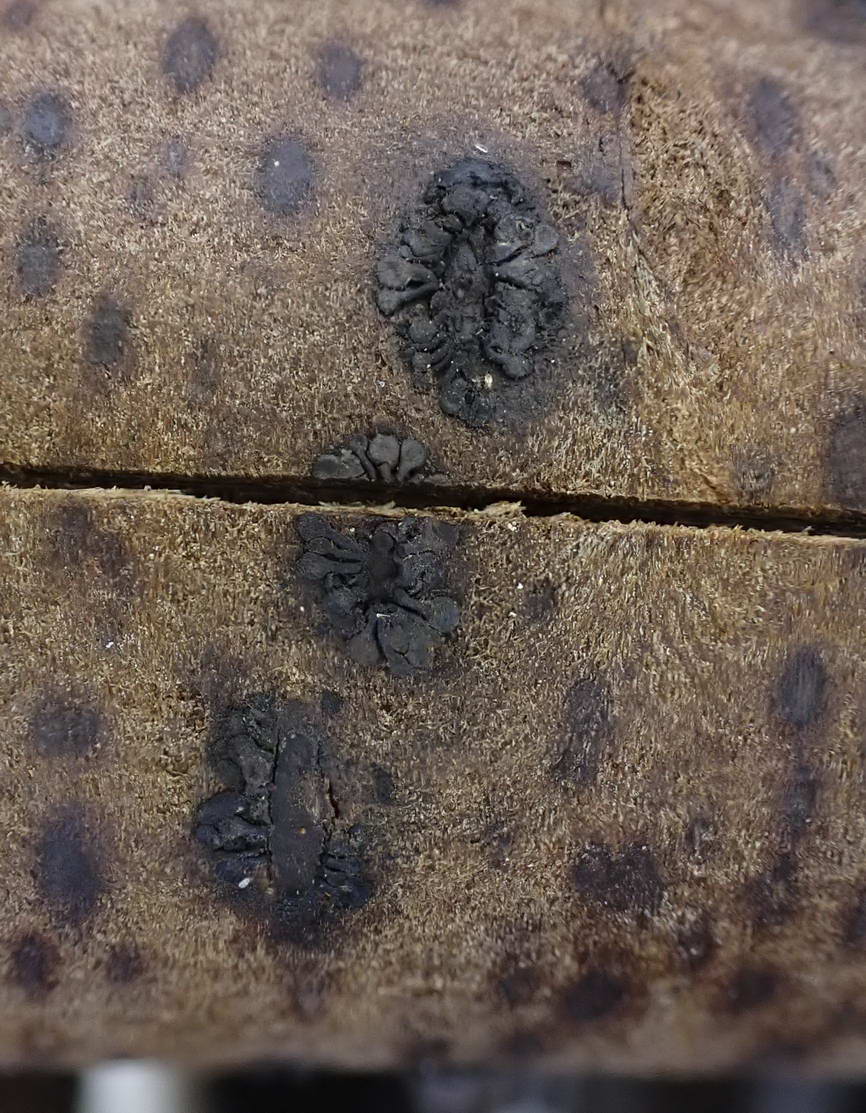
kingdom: Fungi
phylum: Ascomycota
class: Sordariomycetes
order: Calosphaeriales
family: Calosphaeriaceae
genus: Calosphaeria
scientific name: Calosphaeria pulchella
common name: smuk slyngkerne
